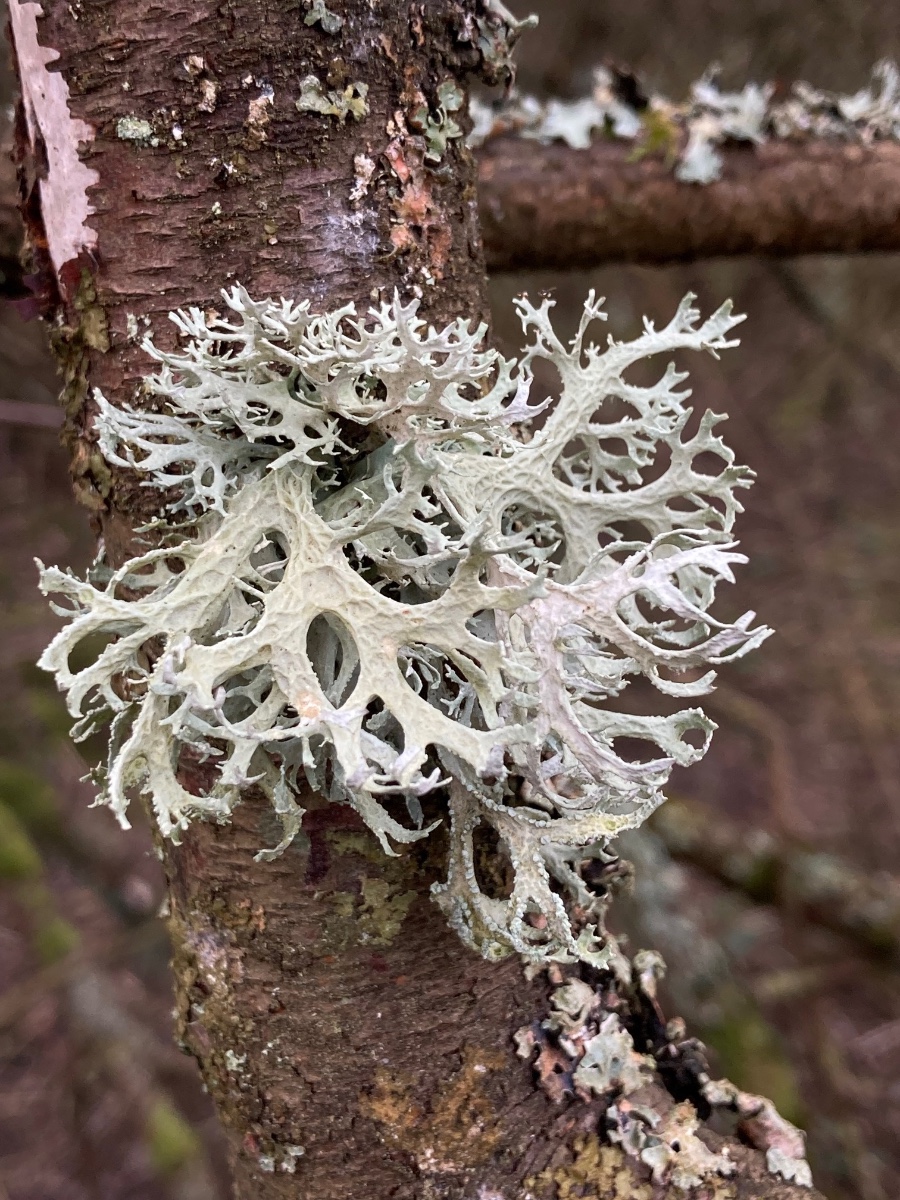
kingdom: Fungi
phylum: Ascomycota
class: Lecanoromycetes
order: Lecanorales
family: Parmeliaceae
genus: Evernia
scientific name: Evernia prunastri
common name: almindelig slåenlav
